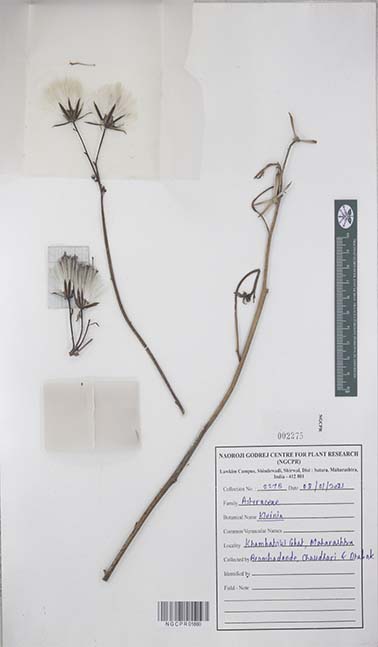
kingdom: Plantae
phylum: Tracheophyta
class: Magnoliopsida
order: Asterales
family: Asteraceae
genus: Kleinia
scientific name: Kleinia
